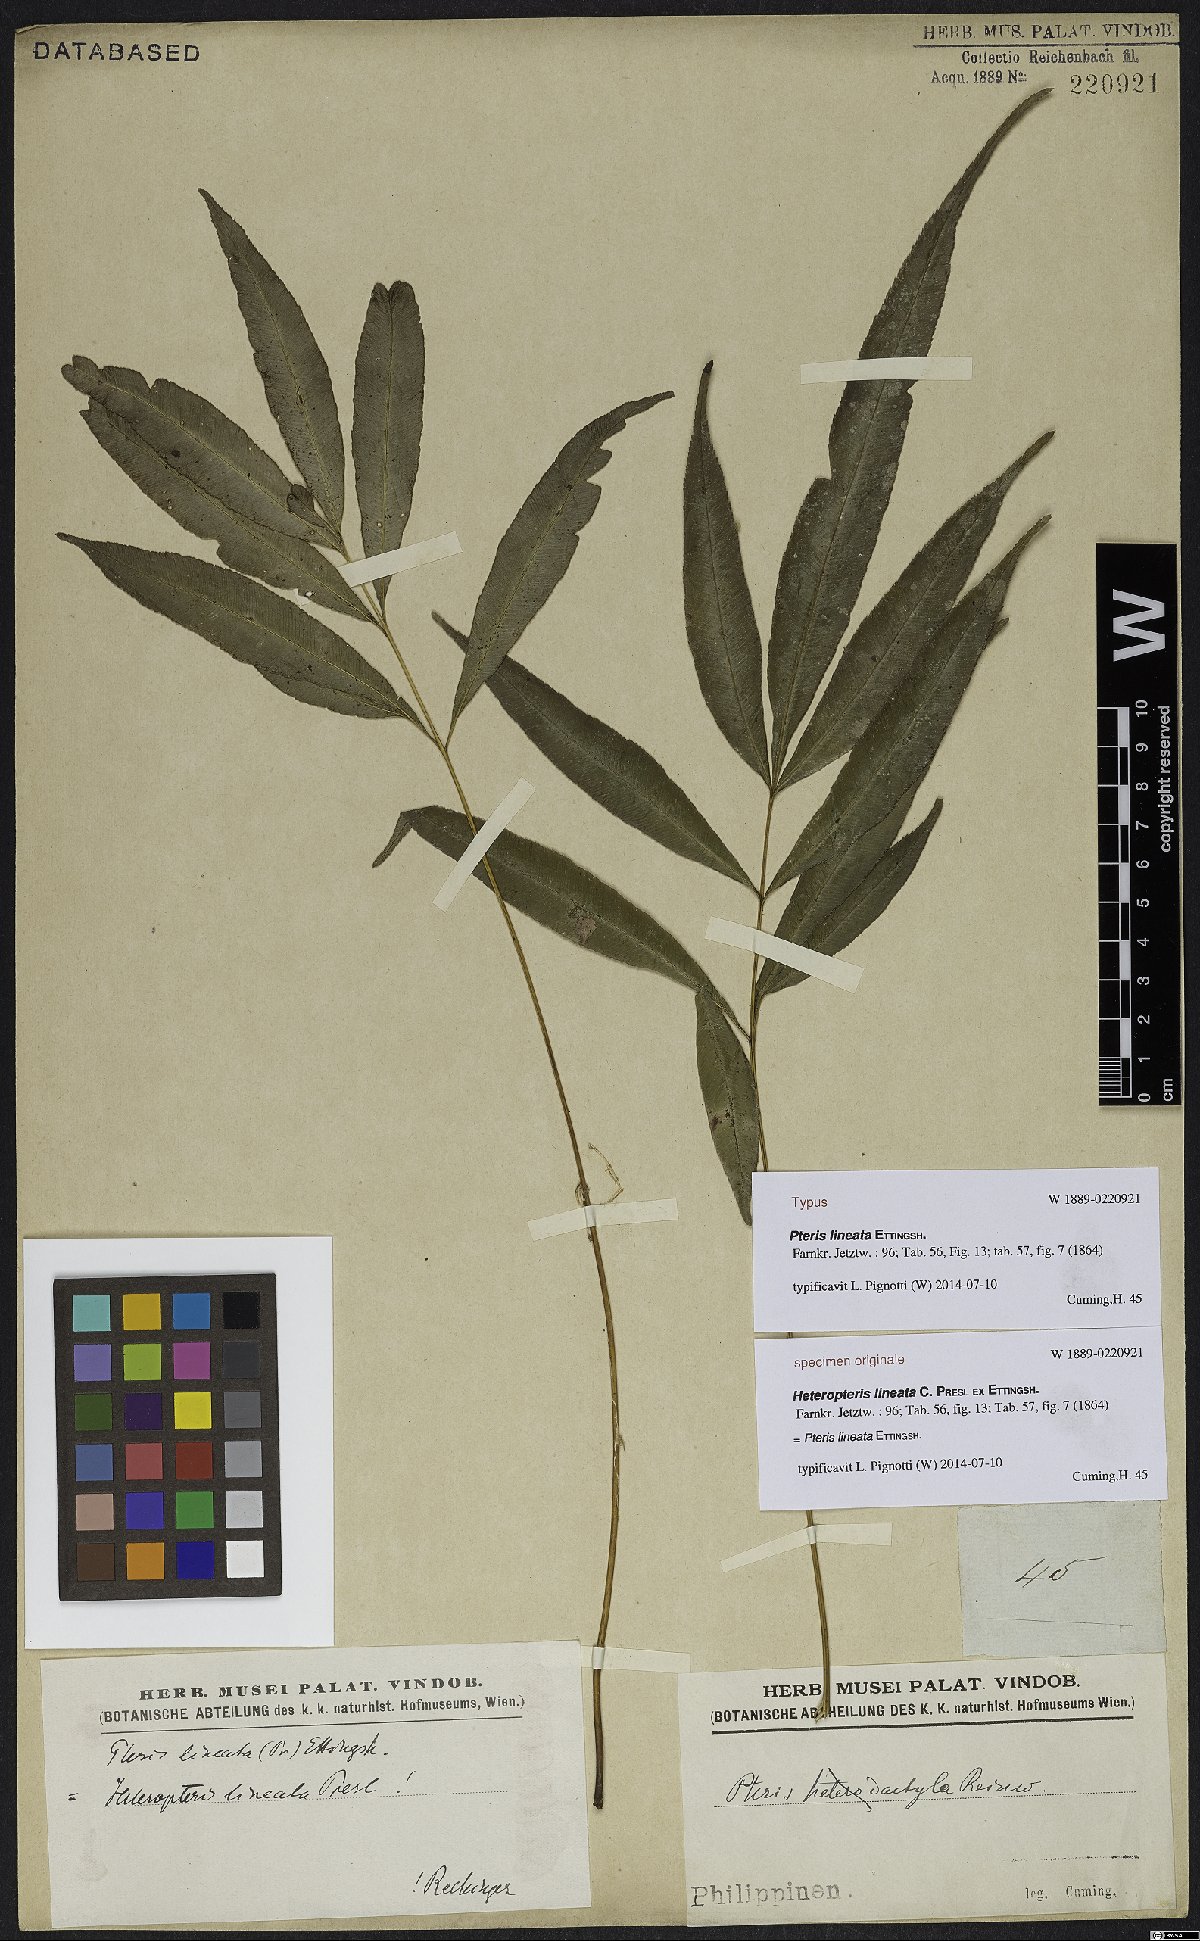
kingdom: Plantae
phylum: Tracheophyta
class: Polypodiopsida
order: Polypodiales
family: Pteridaceae
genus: Pteris
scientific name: Pteris lineata
